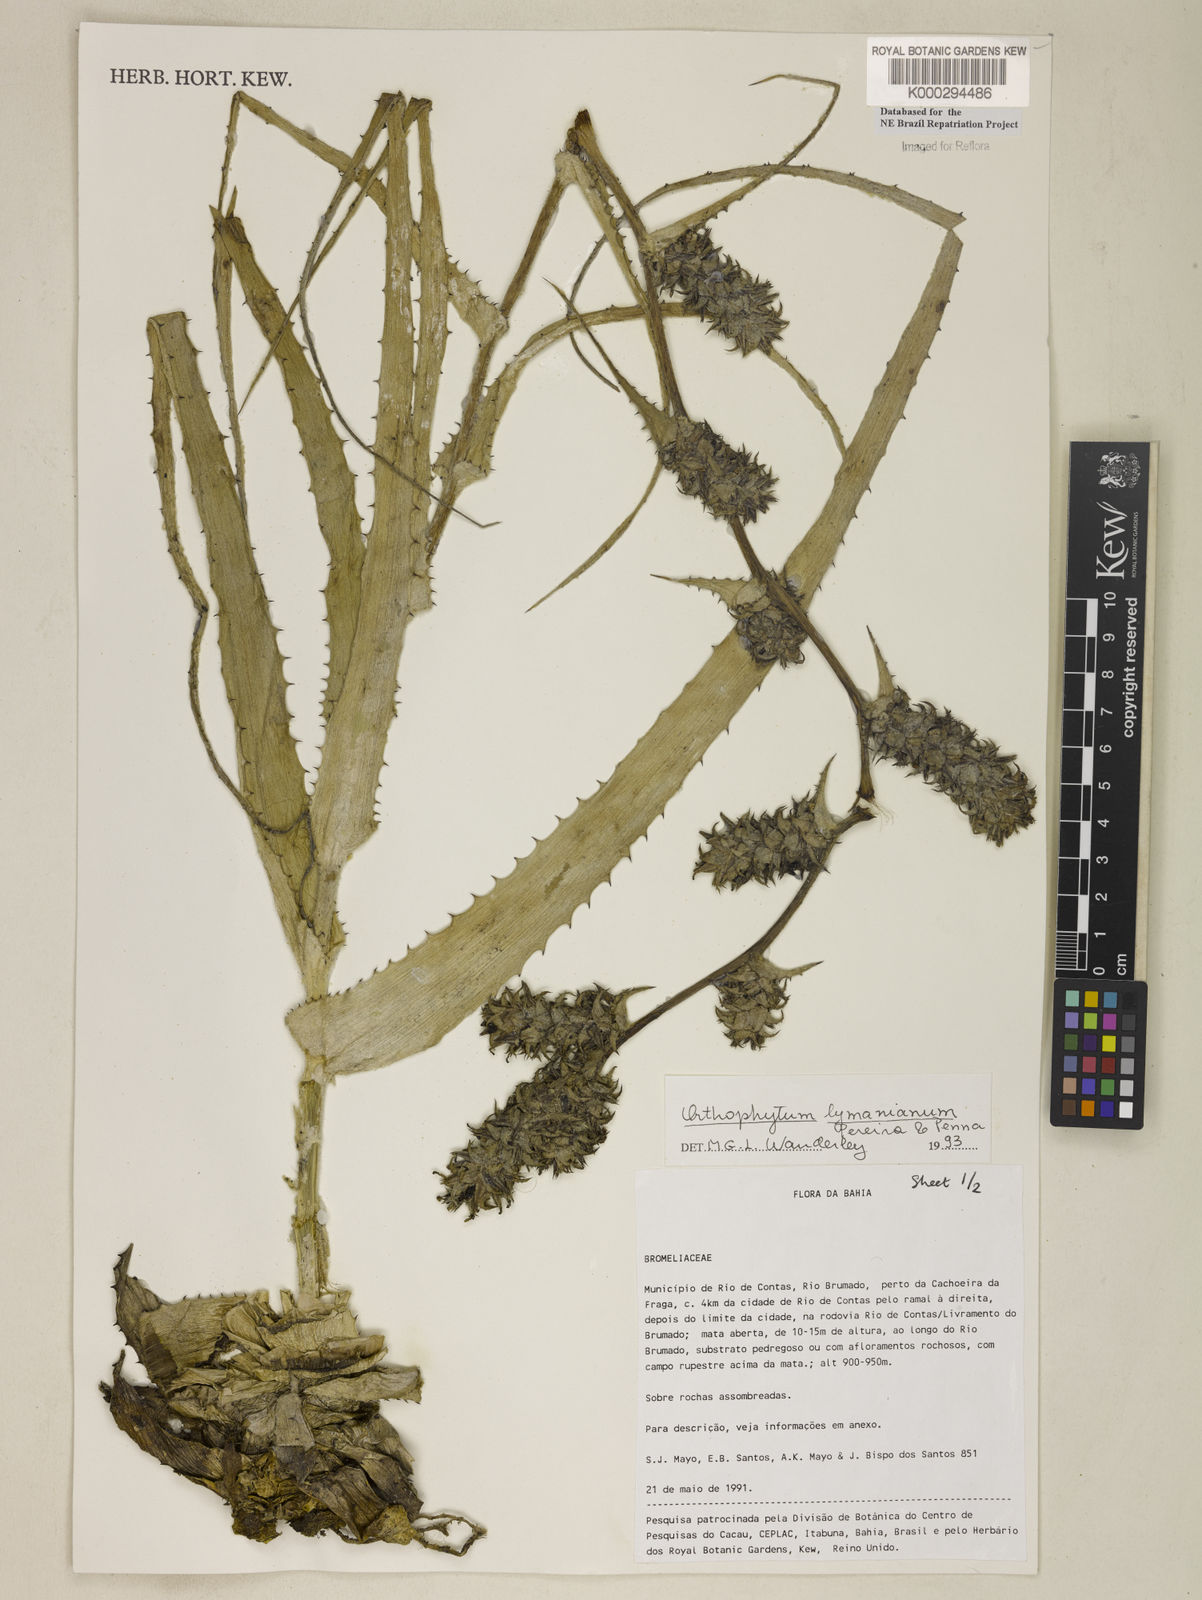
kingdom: Plantae
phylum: Tracheophyta
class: Liliopsida
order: Poales
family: Bromeliaceae
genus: Orthophytum
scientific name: Orthophytum lymanianum
